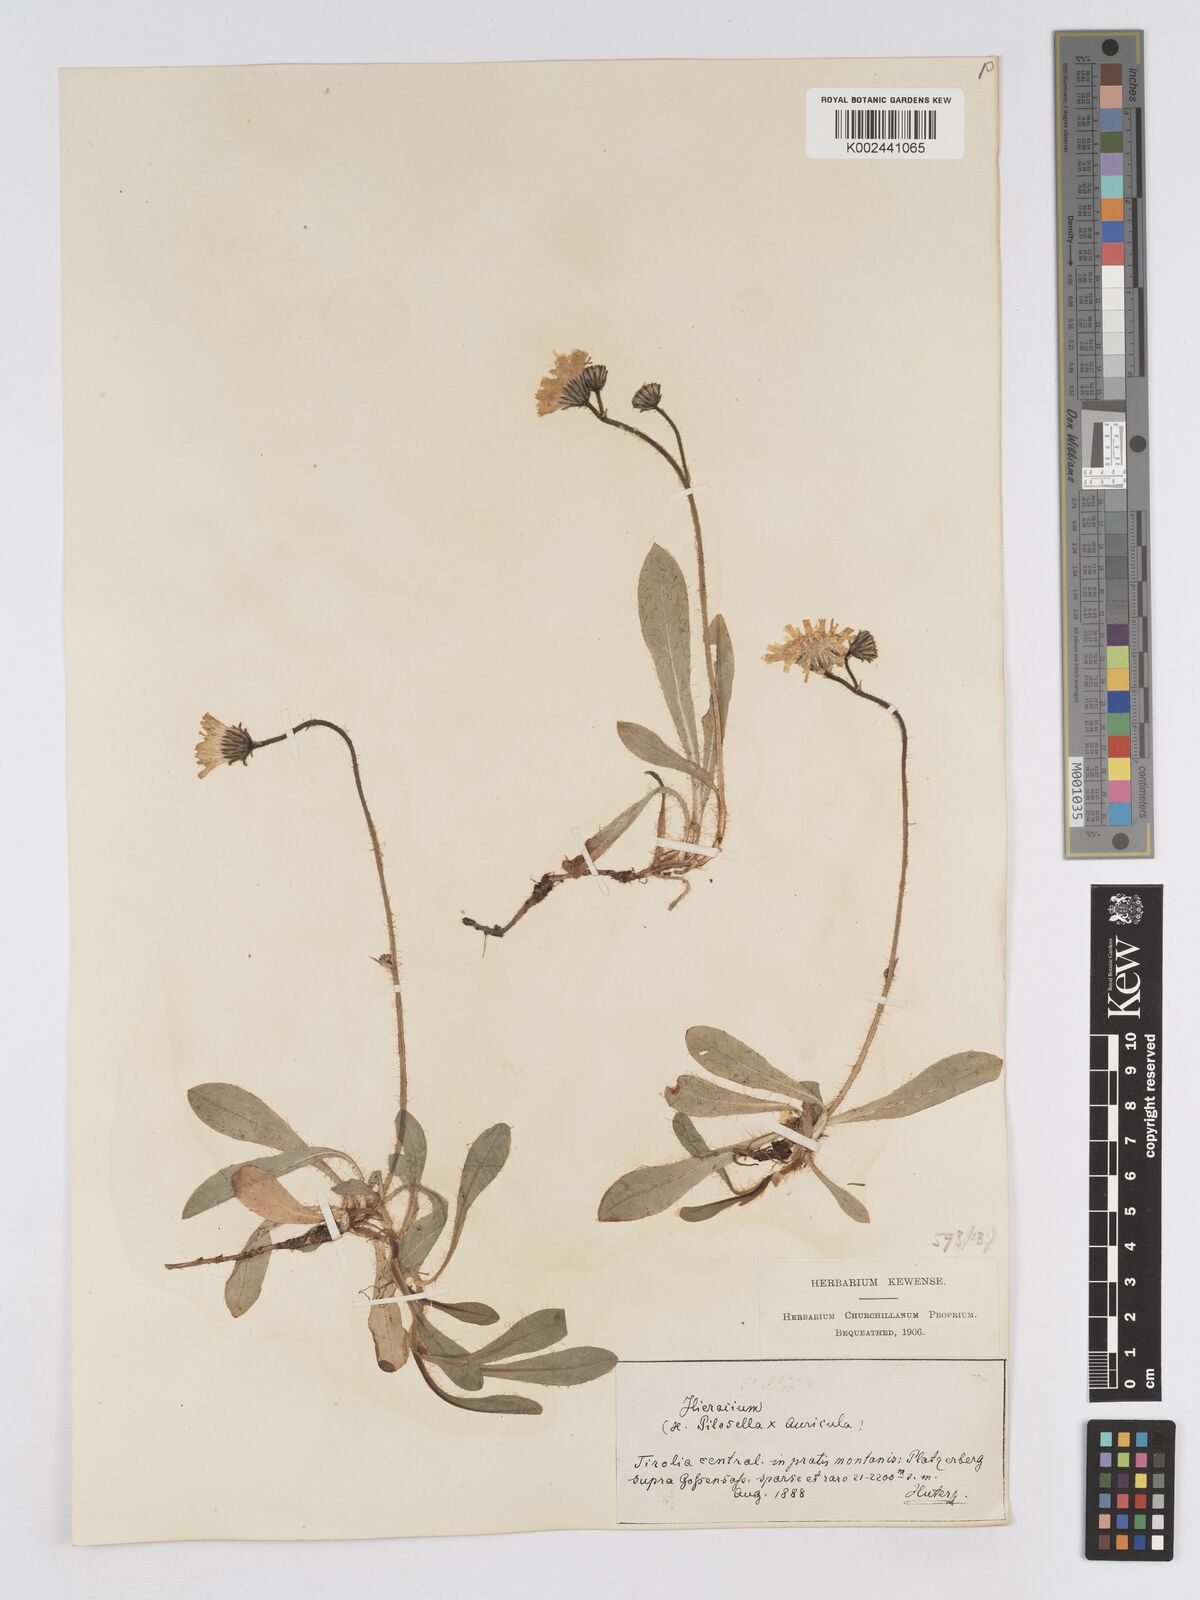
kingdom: Plantae
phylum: Tracheophyta
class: Magnoliopsida
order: Asterales
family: Asteraceae
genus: Pilosella
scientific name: Pilosella sphaerocephala
